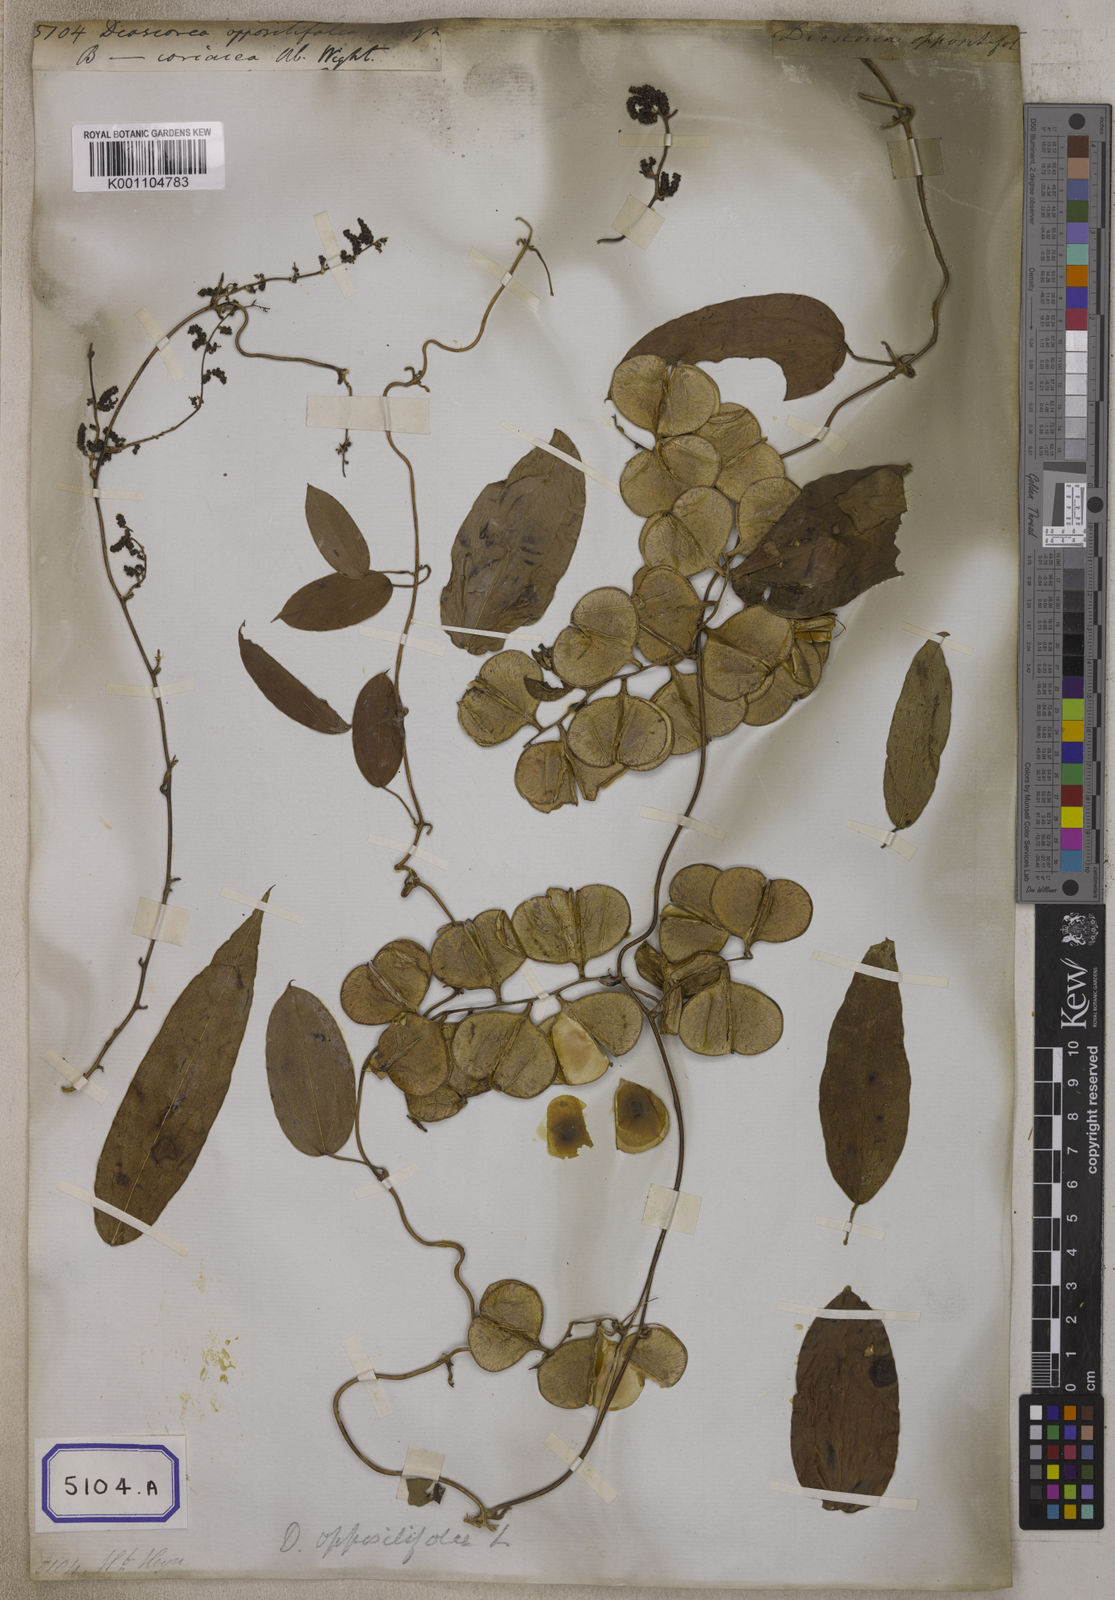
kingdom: Plantae
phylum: Tracheophyta
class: Liliopsida
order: Dioscoreales
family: Dioscoreaceae
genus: Dioscorea
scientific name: Dioscorea oppositifolia
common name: Chinese yam
